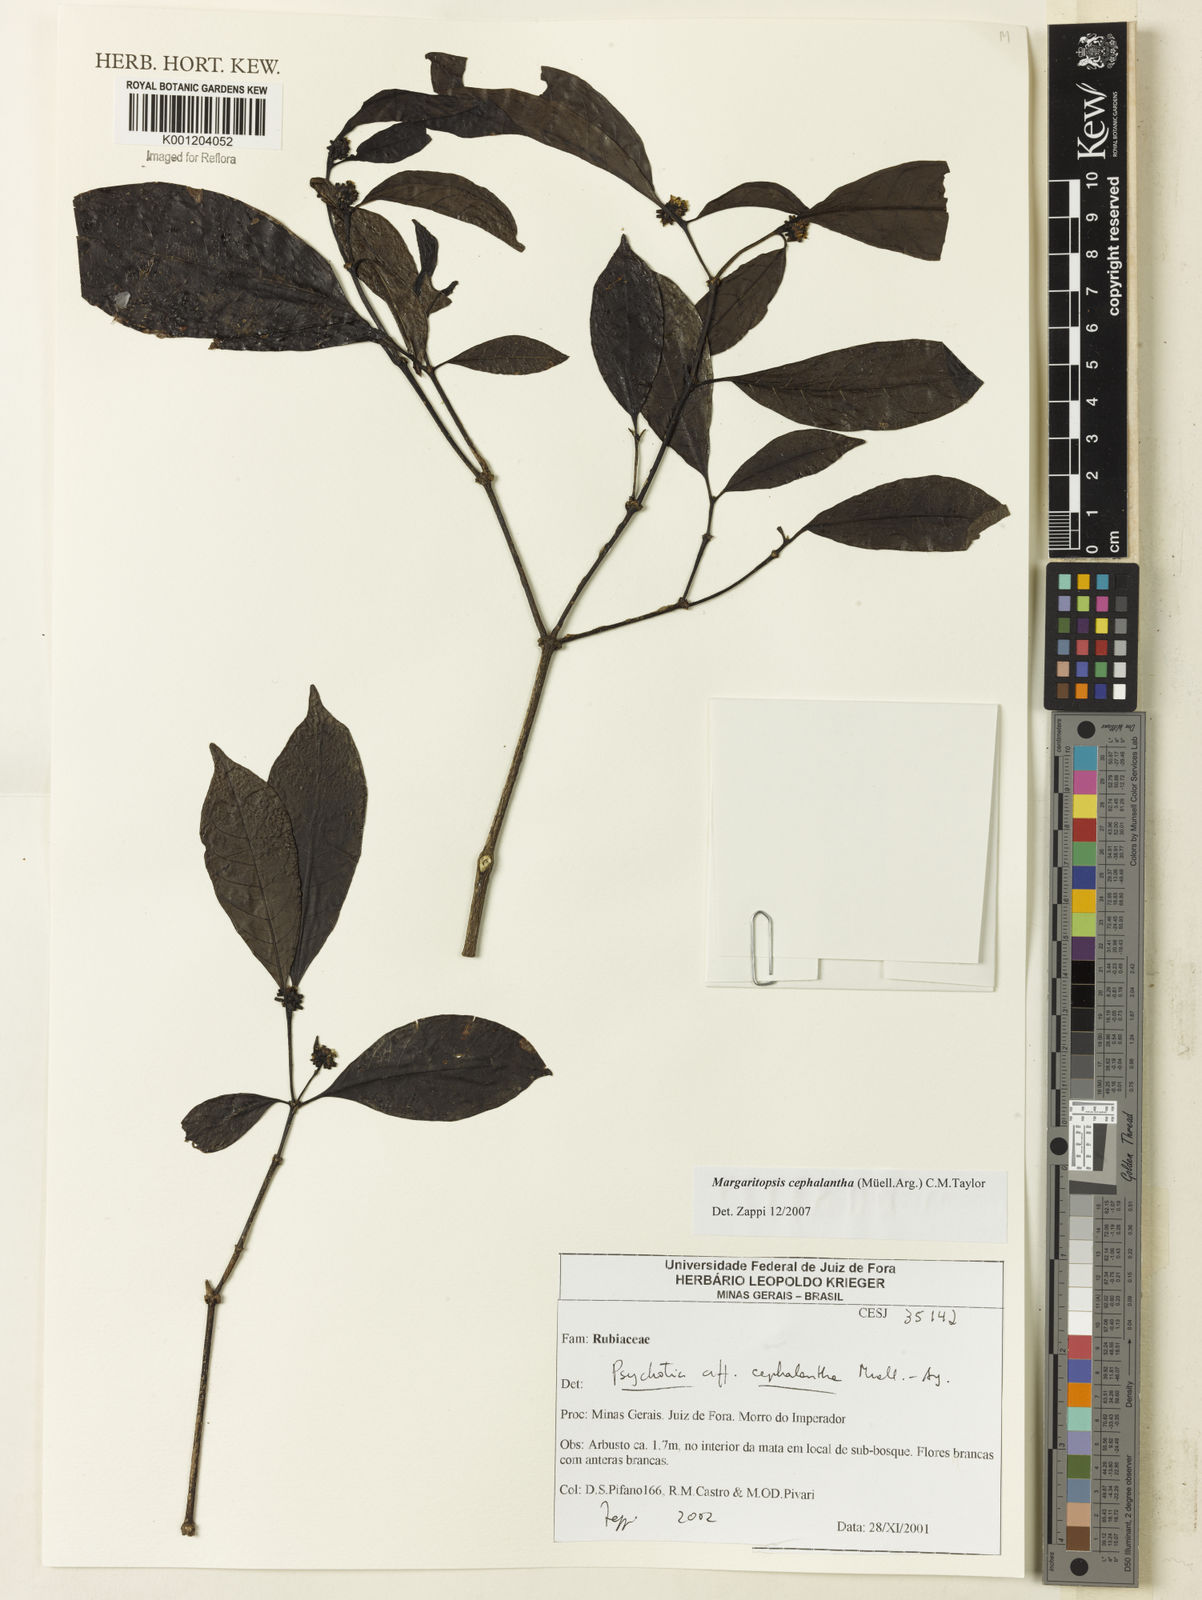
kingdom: Plantae
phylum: Tracheophyta
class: Magnoliopsida
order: Gentianales
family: Rubiaceae
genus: Eumachia
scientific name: Eumachia
